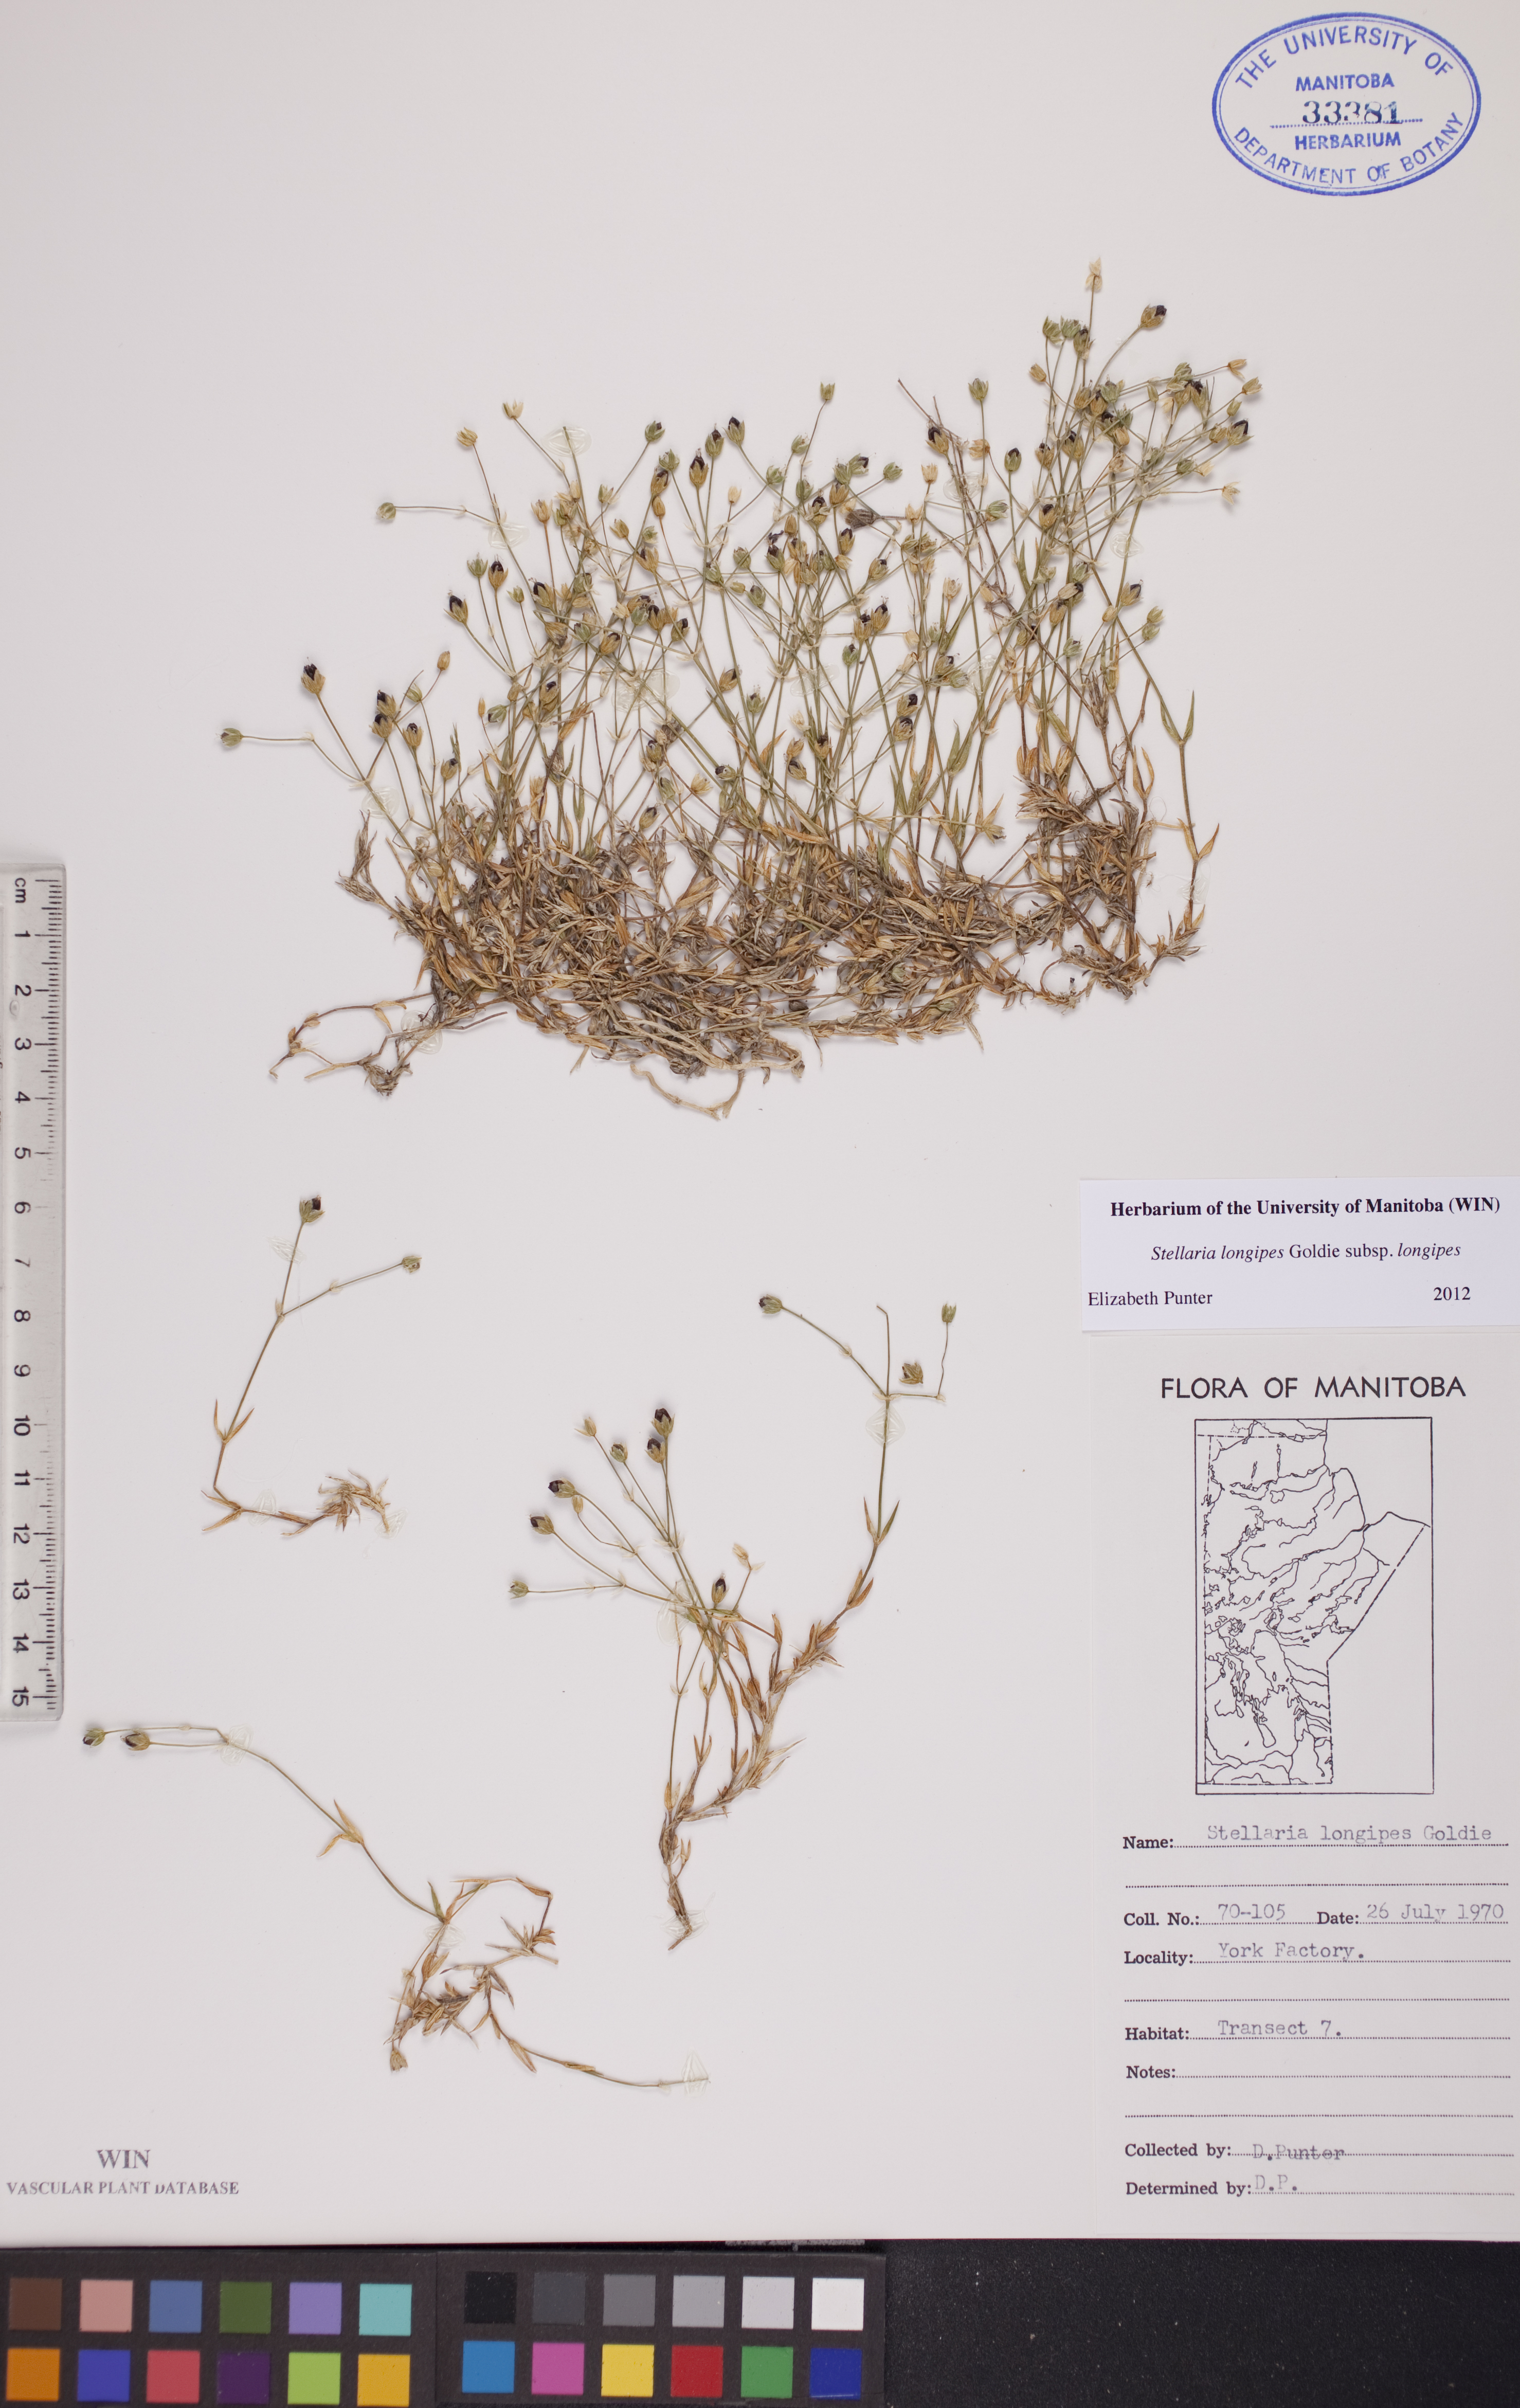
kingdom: Plantae
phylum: Tracheophyta
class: Magnoliopsida
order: Caryophyllales
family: Caryophyllaceae
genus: Stellaria
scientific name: Stellaria longipes
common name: Goldie's starwort
